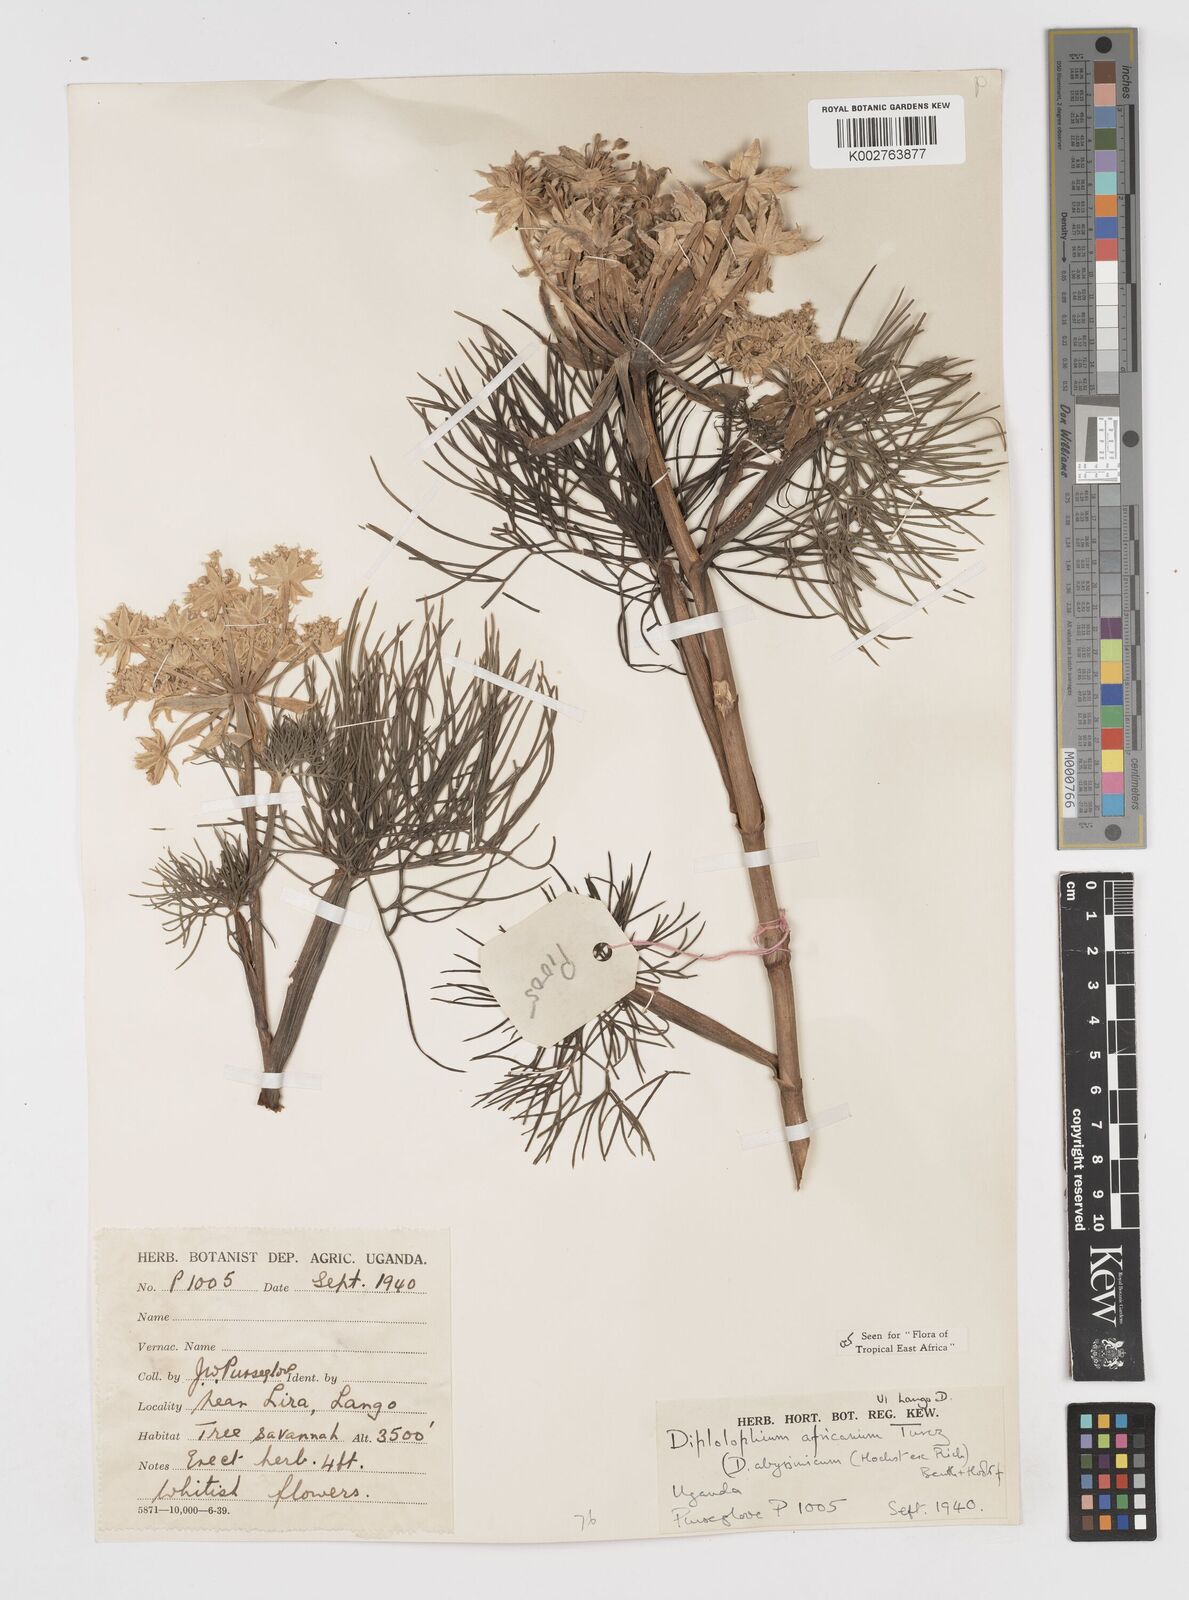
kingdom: Plantae
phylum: Tracheophyta
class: Magnoliopsida
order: Apiales
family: Apiaceae
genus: Diplolophium
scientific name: Diplolophium africanum
